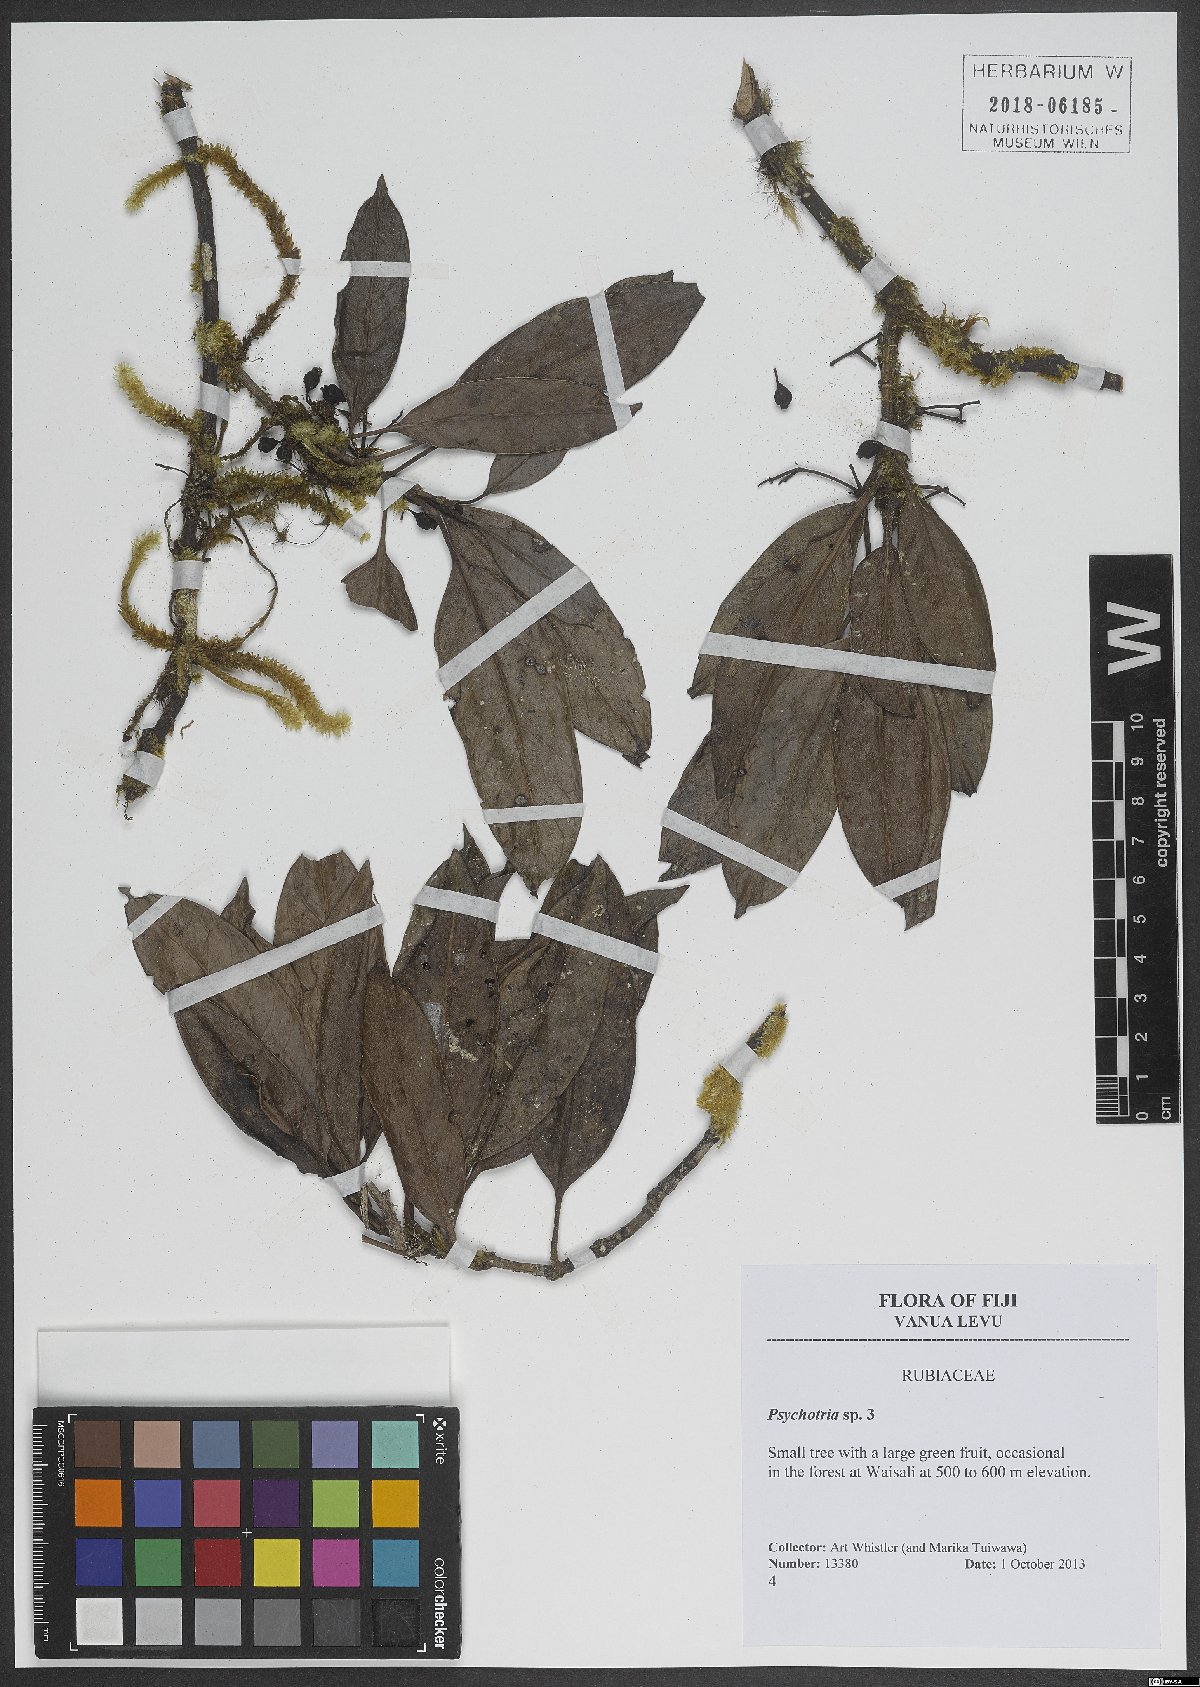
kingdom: Plantae
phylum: Tracheophyta
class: Magnoliopsida
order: Gentianales
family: Rubiaceae
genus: Psychotria
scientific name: Psychotria
